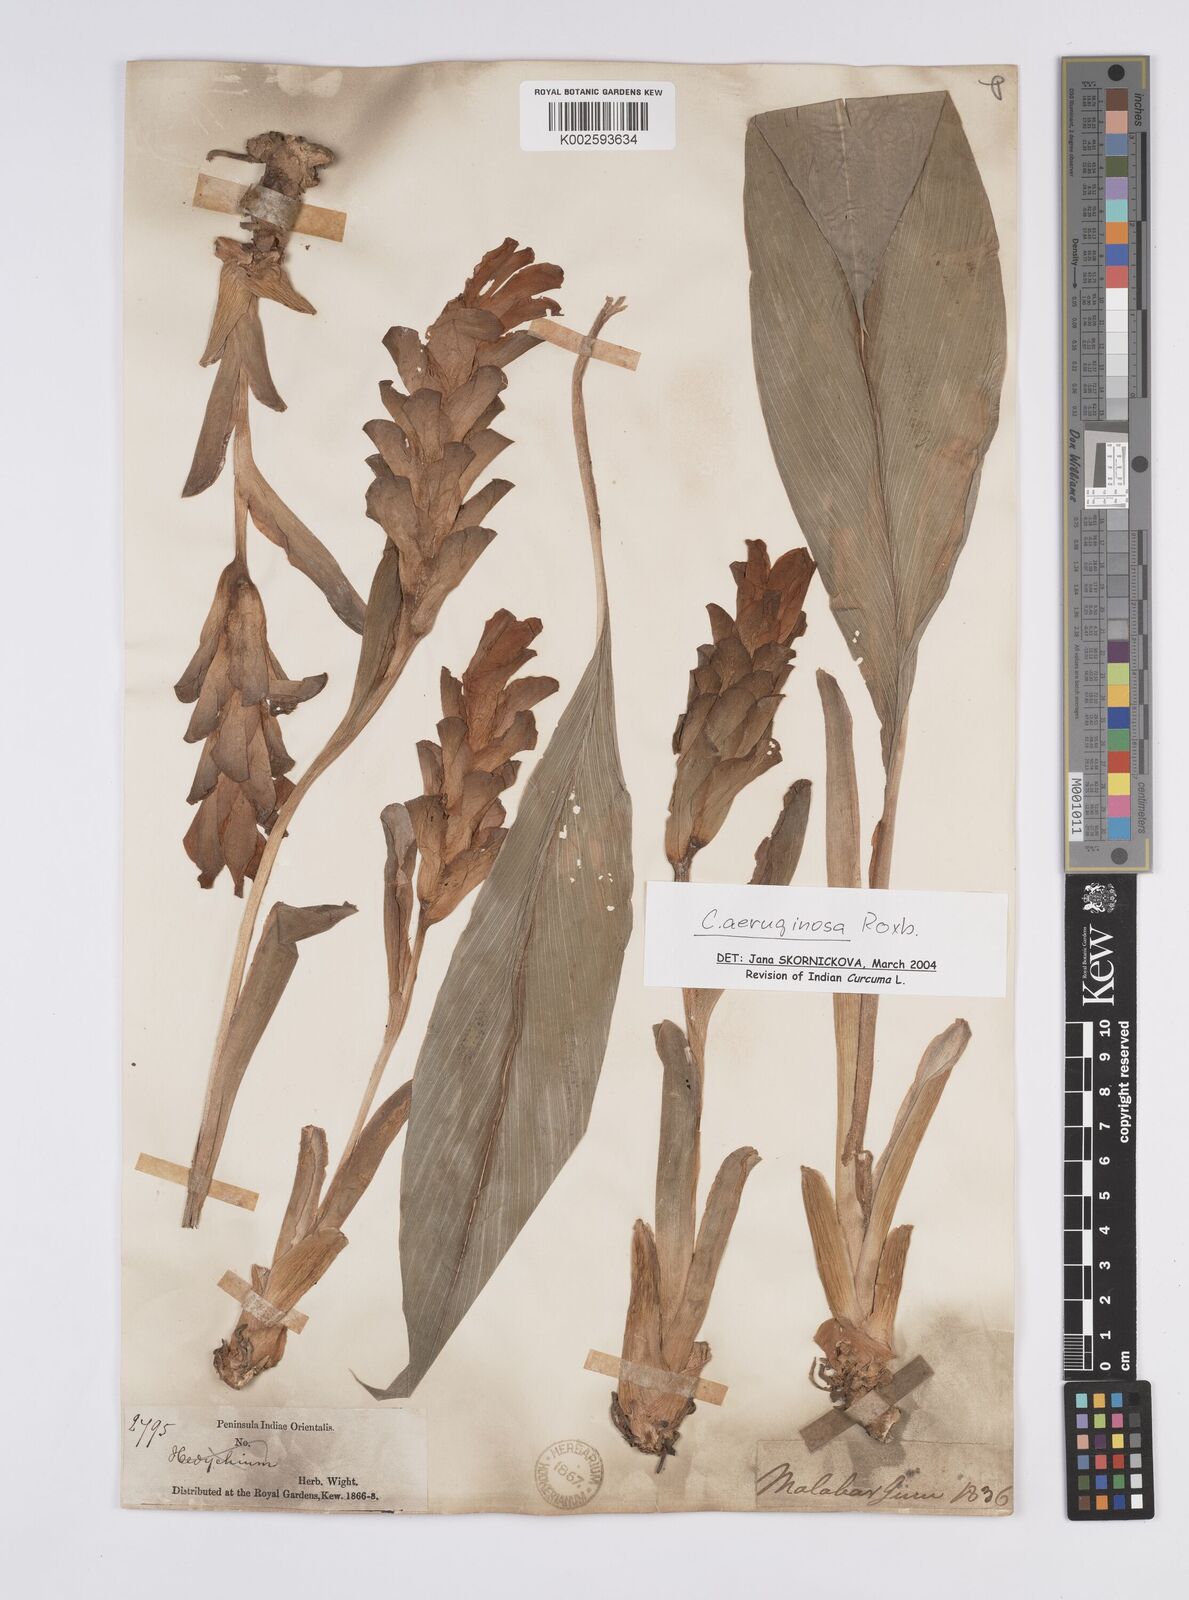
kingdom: Plantae
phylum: Tracheophyta
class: Liliopsida
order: Zingiberales
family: Zingiberaceae
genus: Curcuma
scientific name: Curcuma aeruginosa
